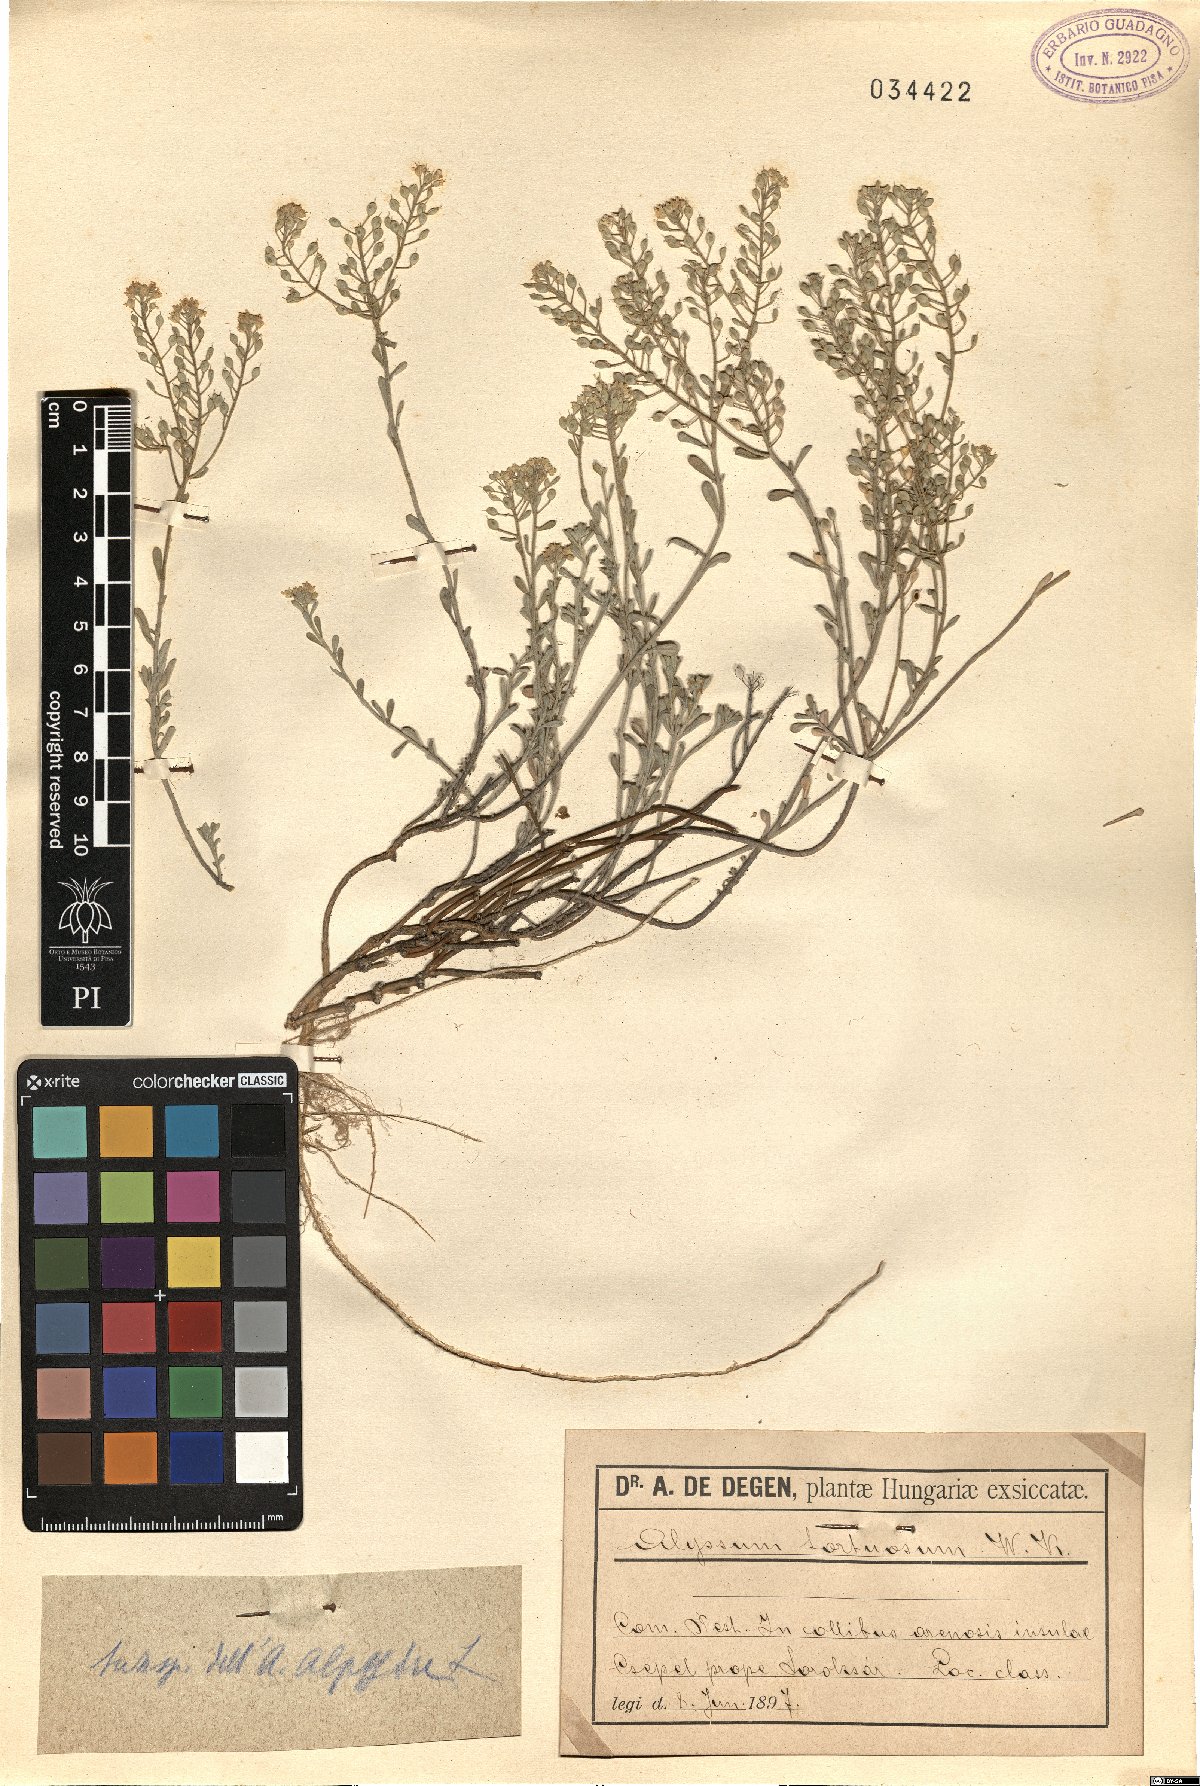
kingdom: Plantae
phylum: Tracheophyta
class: Magnoliopsida
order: Brassicales
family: Brassicaceae
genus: Odontarrhena
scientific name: Odontarrhena tortuosa
